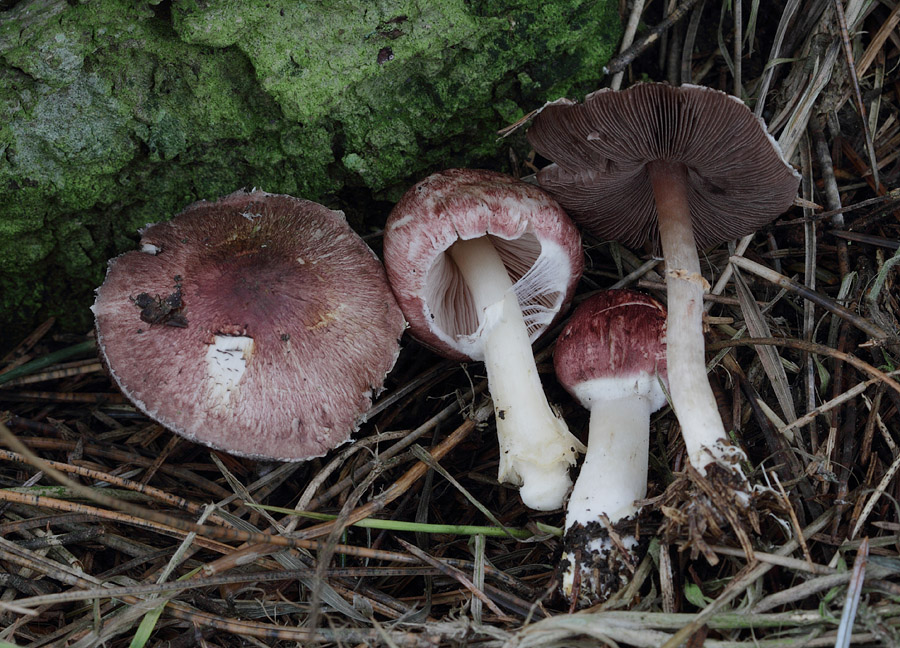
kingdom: Fungi
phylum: Basidiomycota
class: Agaricomycetes
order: Agaricales
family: Agaricaceae
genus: Agaricus
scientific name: Agaricus kerriganii
